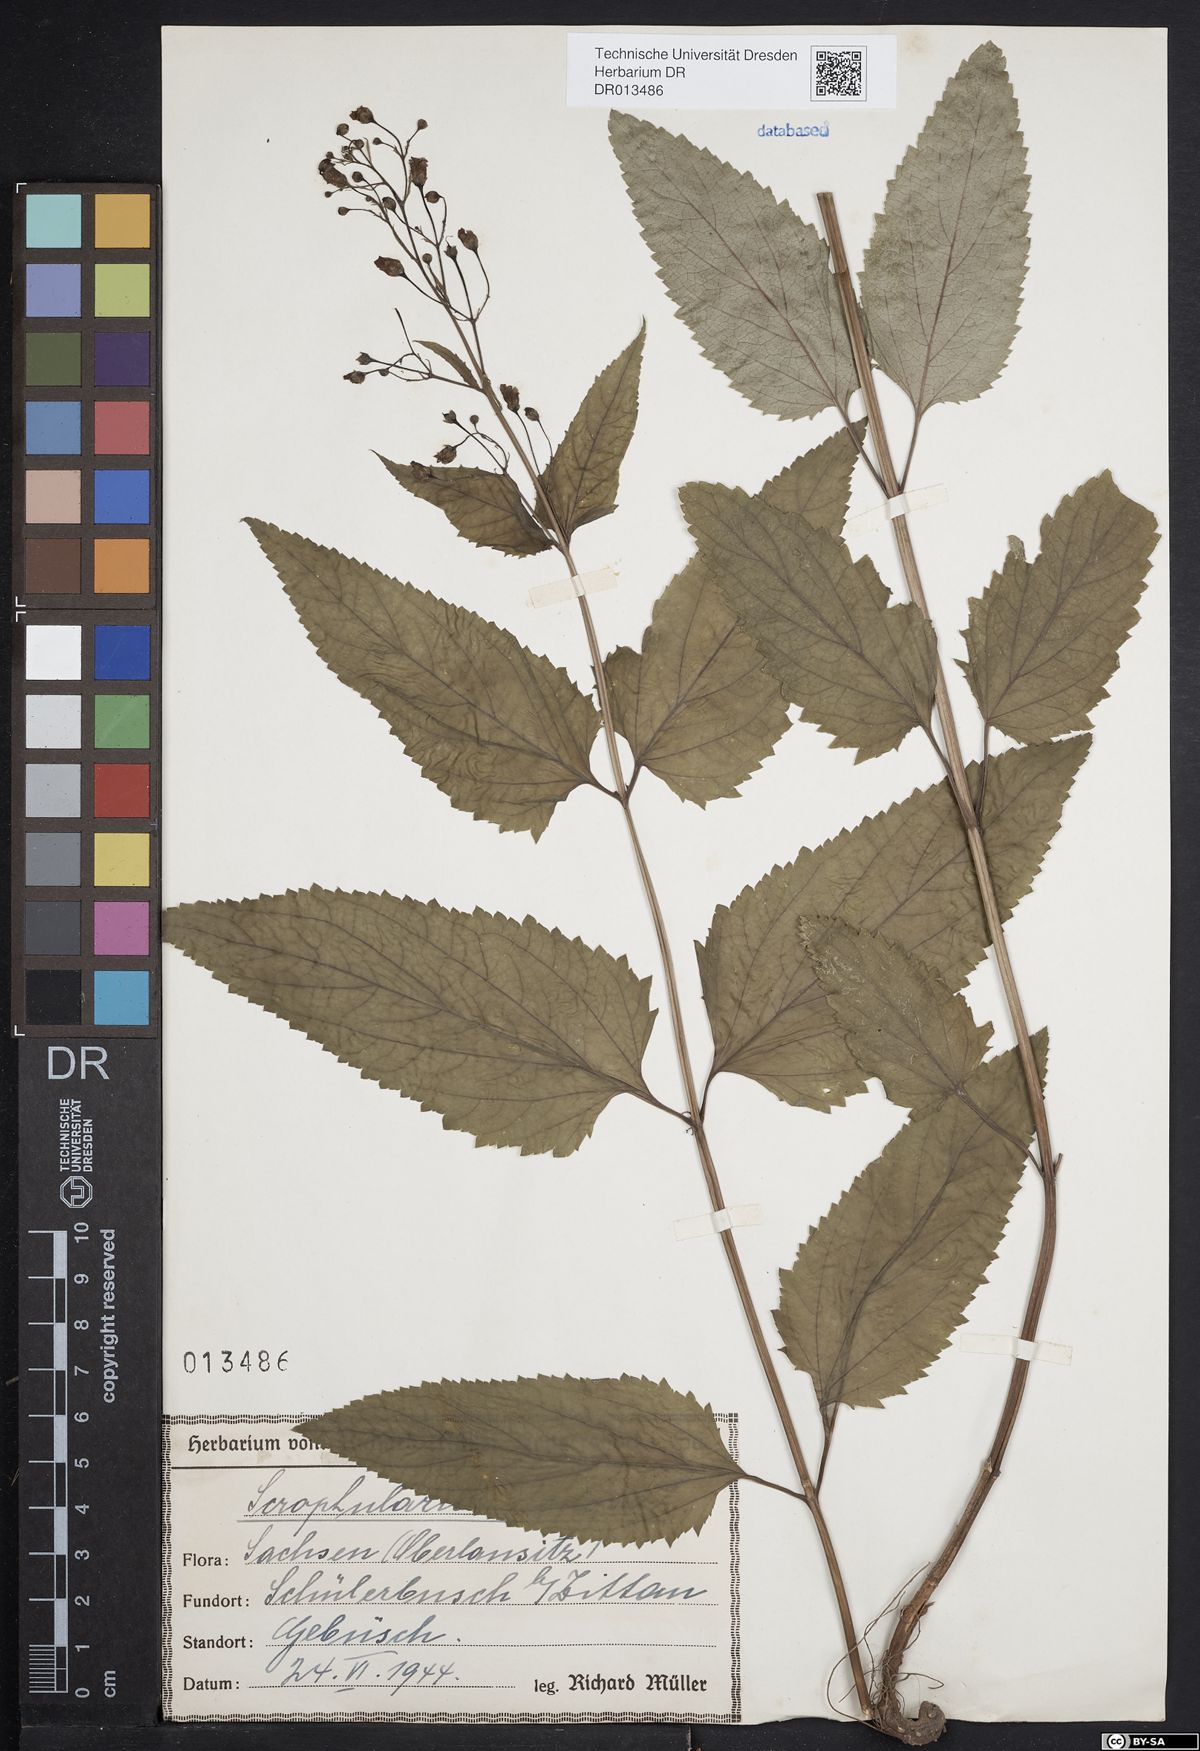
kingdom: Plantae
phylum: Tracheophyta
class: Magnoliopsida
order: Lamiales
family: Scrophulariaceae
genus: Scrophularia
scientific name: Scrophularia nodosa
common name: Common figwort
